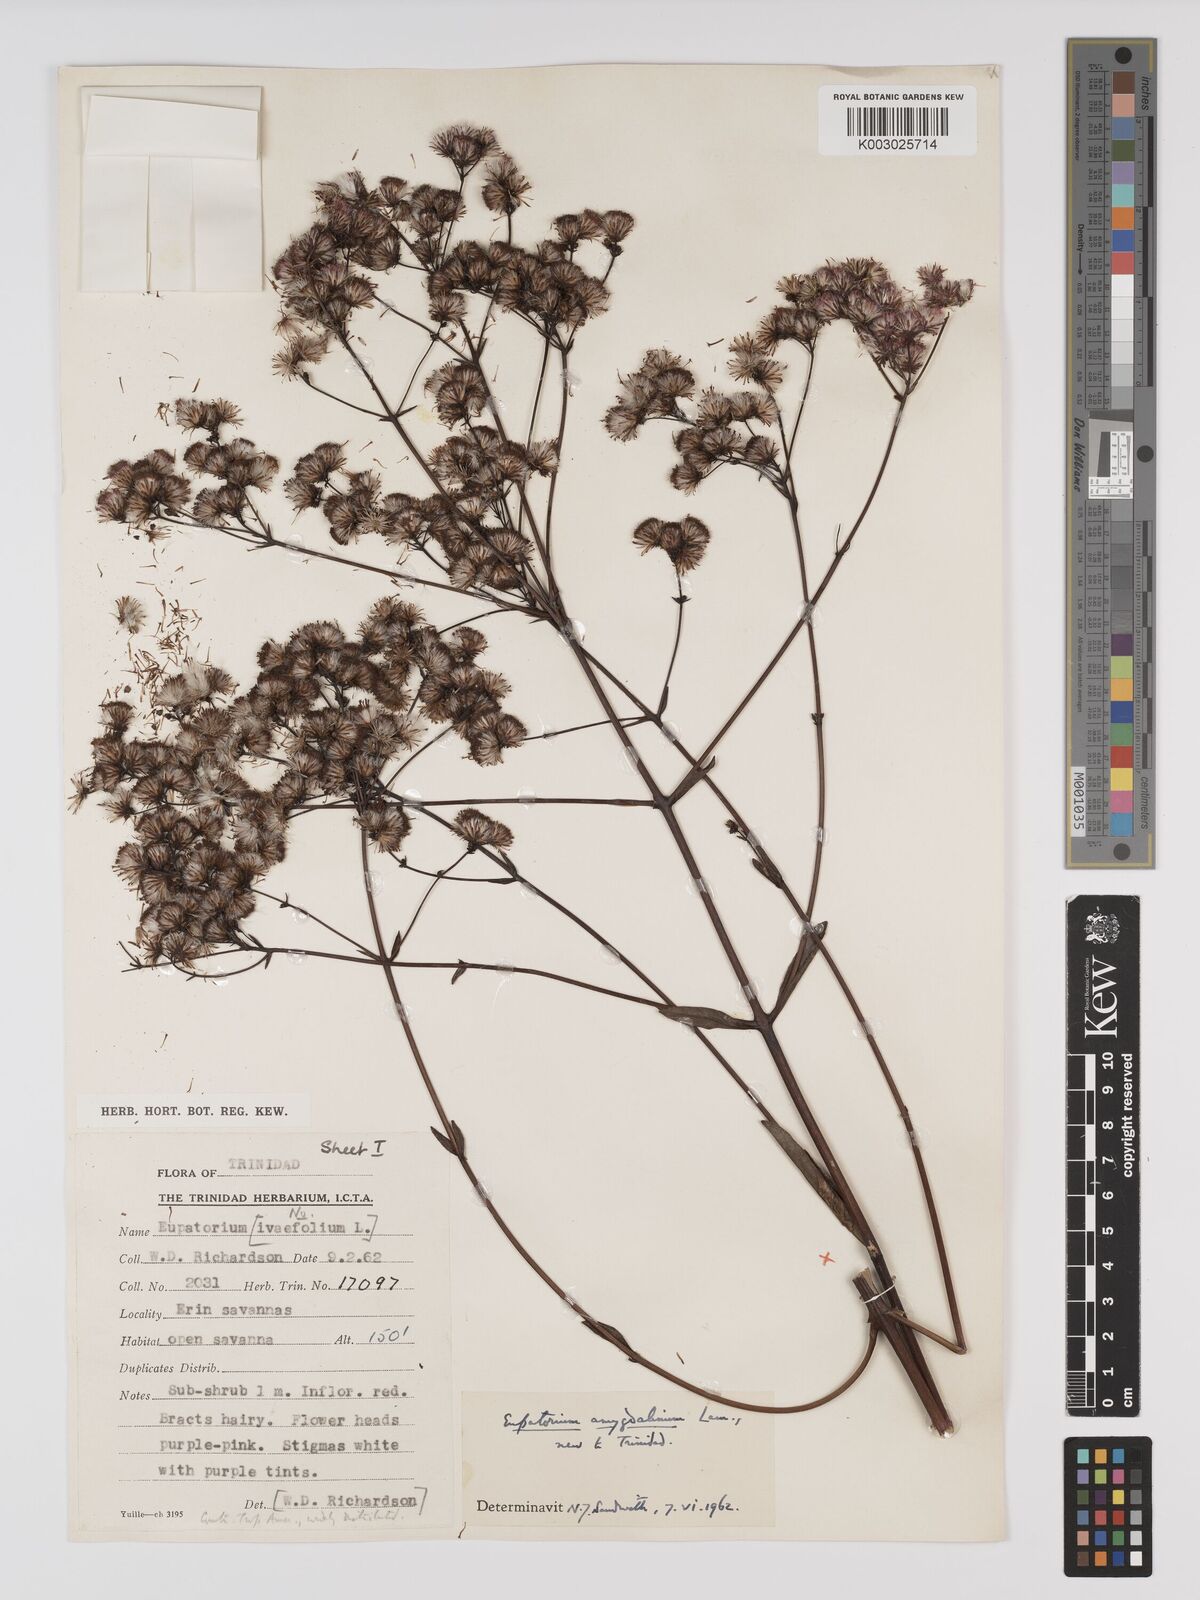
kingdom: Plantae
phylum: Tracheophyta
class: Magnoliopsida
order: Asterales
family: Asteraceae
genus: Ayapana
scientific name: Ayapana amygdalina
